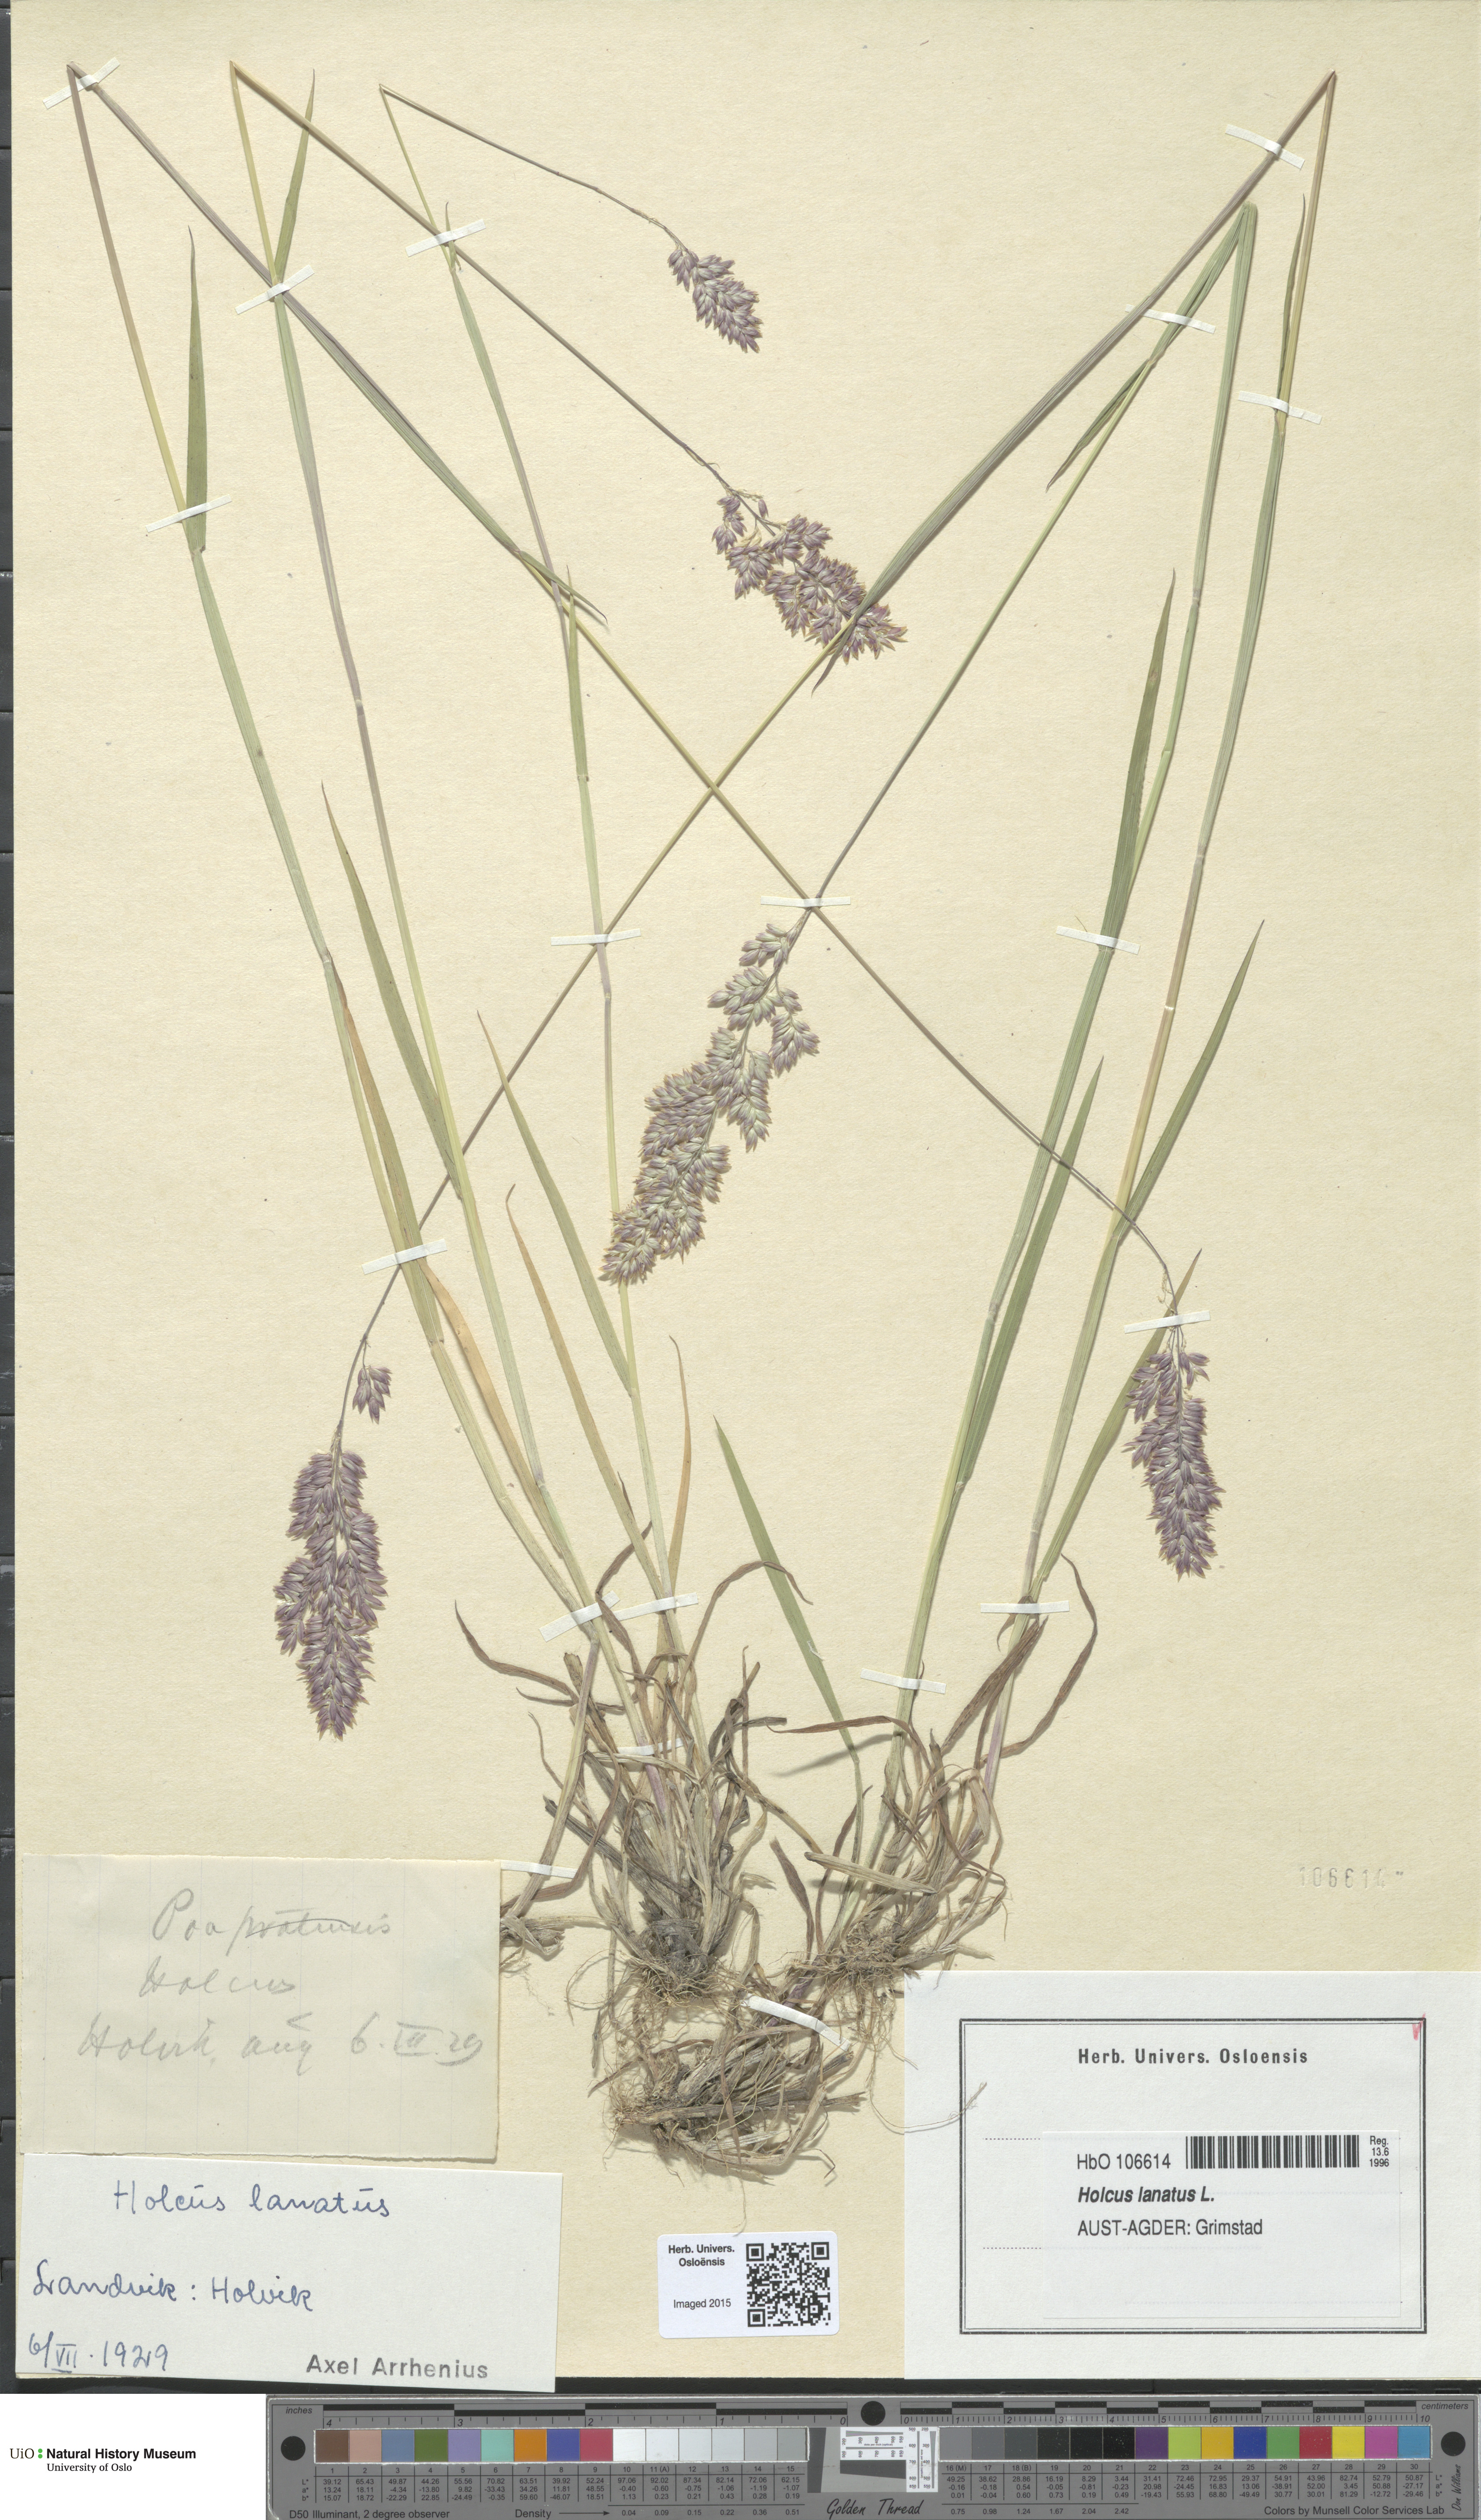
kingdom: Plantae
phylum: Tracheophyta
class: Liliopsida
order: Poales
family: Poaceae
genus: Holcus
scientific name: Holcus lanatus
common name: Yorkshire-fog
